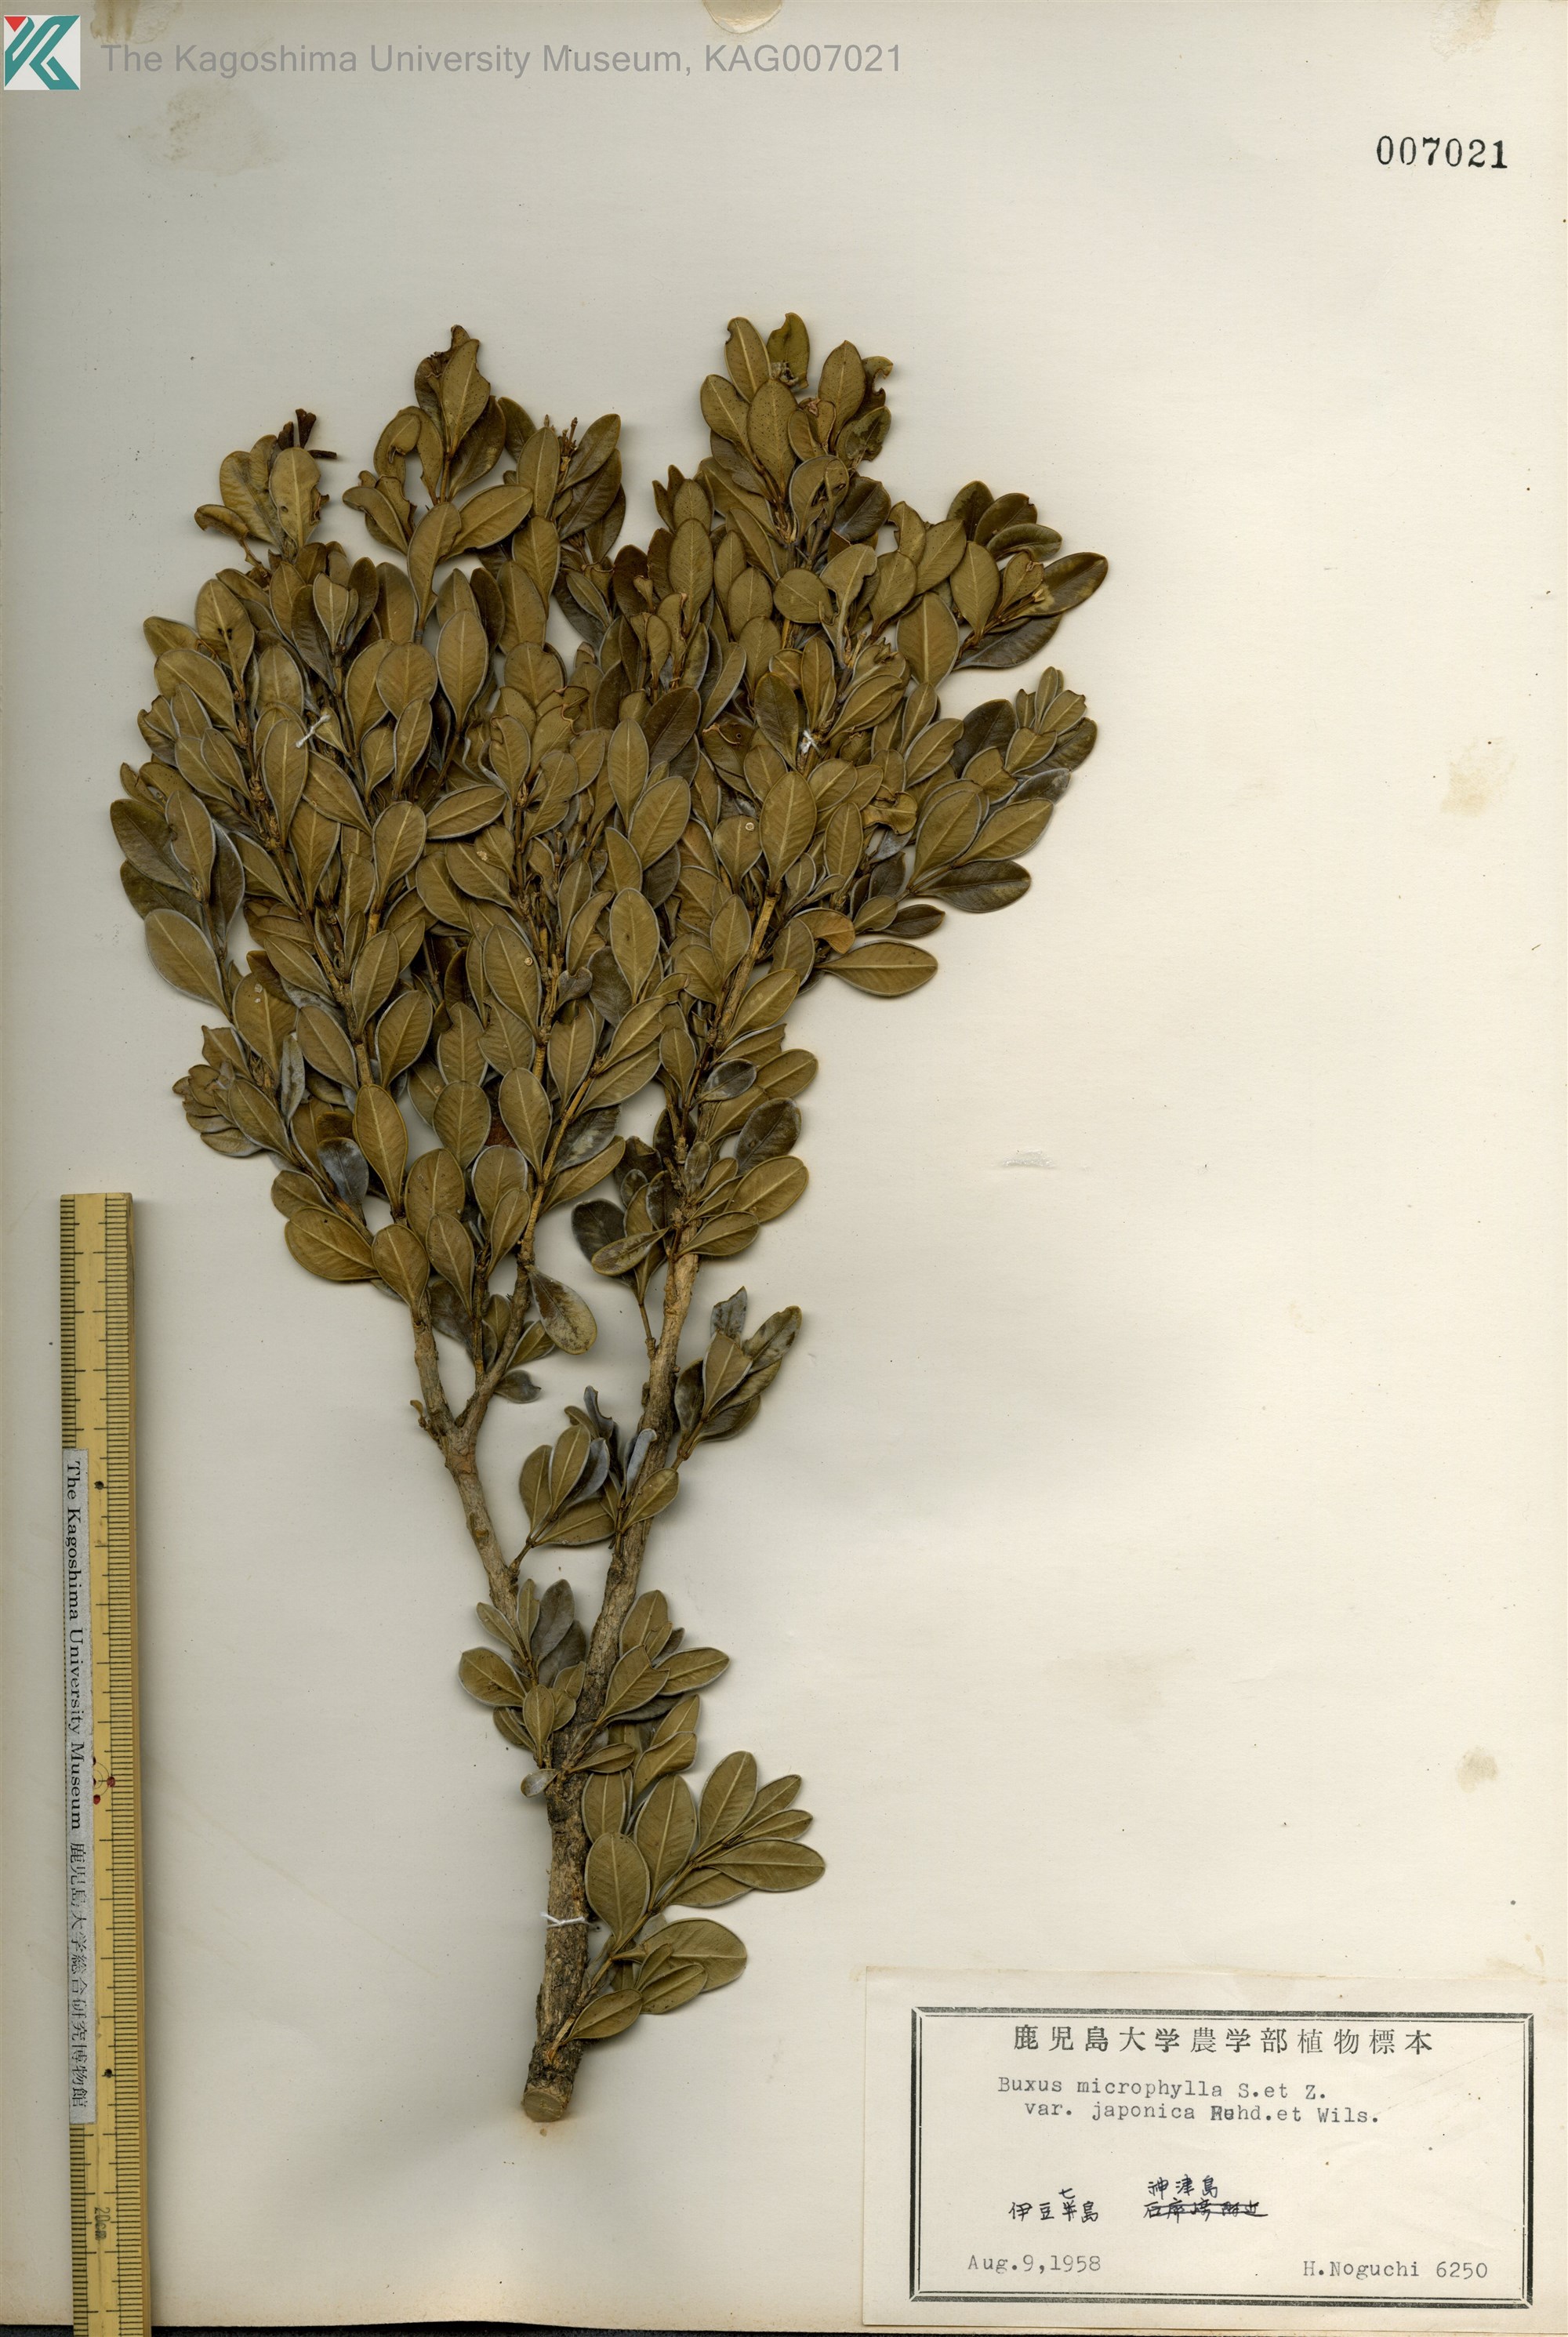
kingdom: Plantae
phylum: Tracheophyta
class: Magnoliopsida
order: Buxales
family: Buxaceae
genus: Buxus
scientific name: Buxus microphylla
